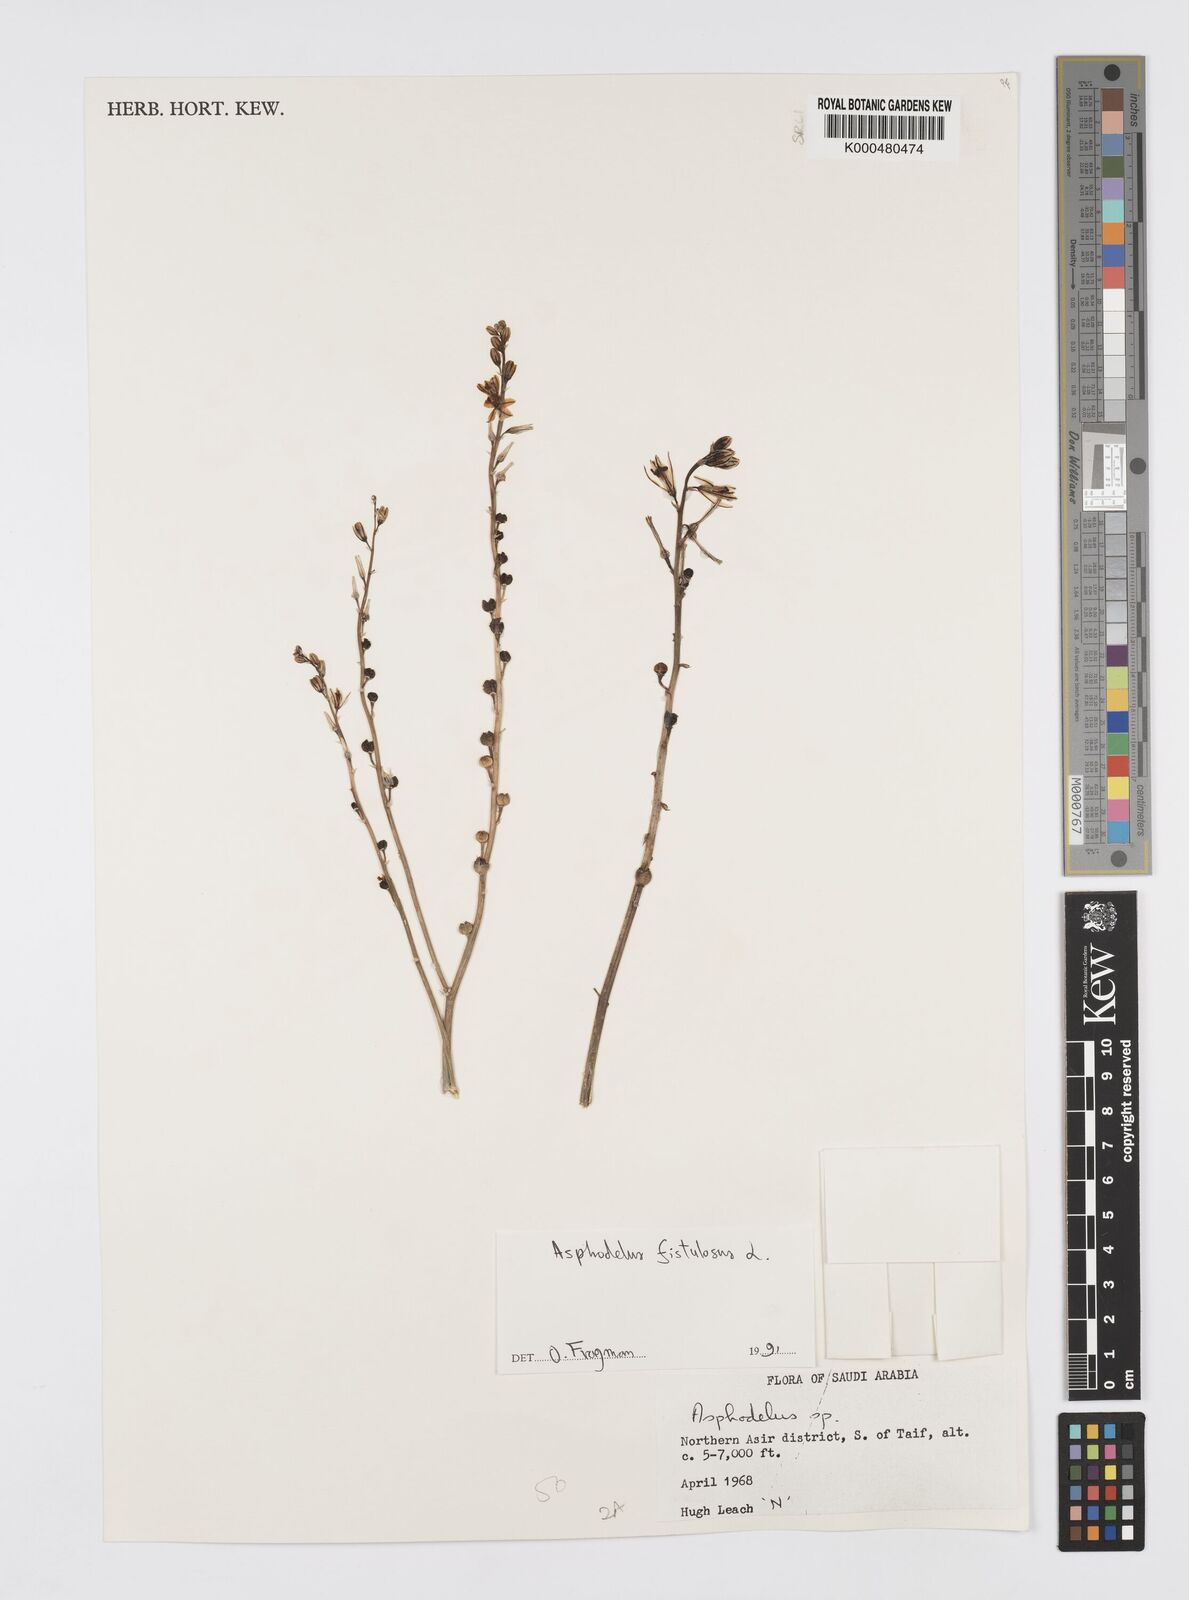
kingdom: Plantae
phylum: Tracheophyta
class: Liliopsida
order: Asparagales
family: Asphodelaceae
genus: Asphodelus
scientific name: Asphodelus fistulosus
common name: Onionweed
